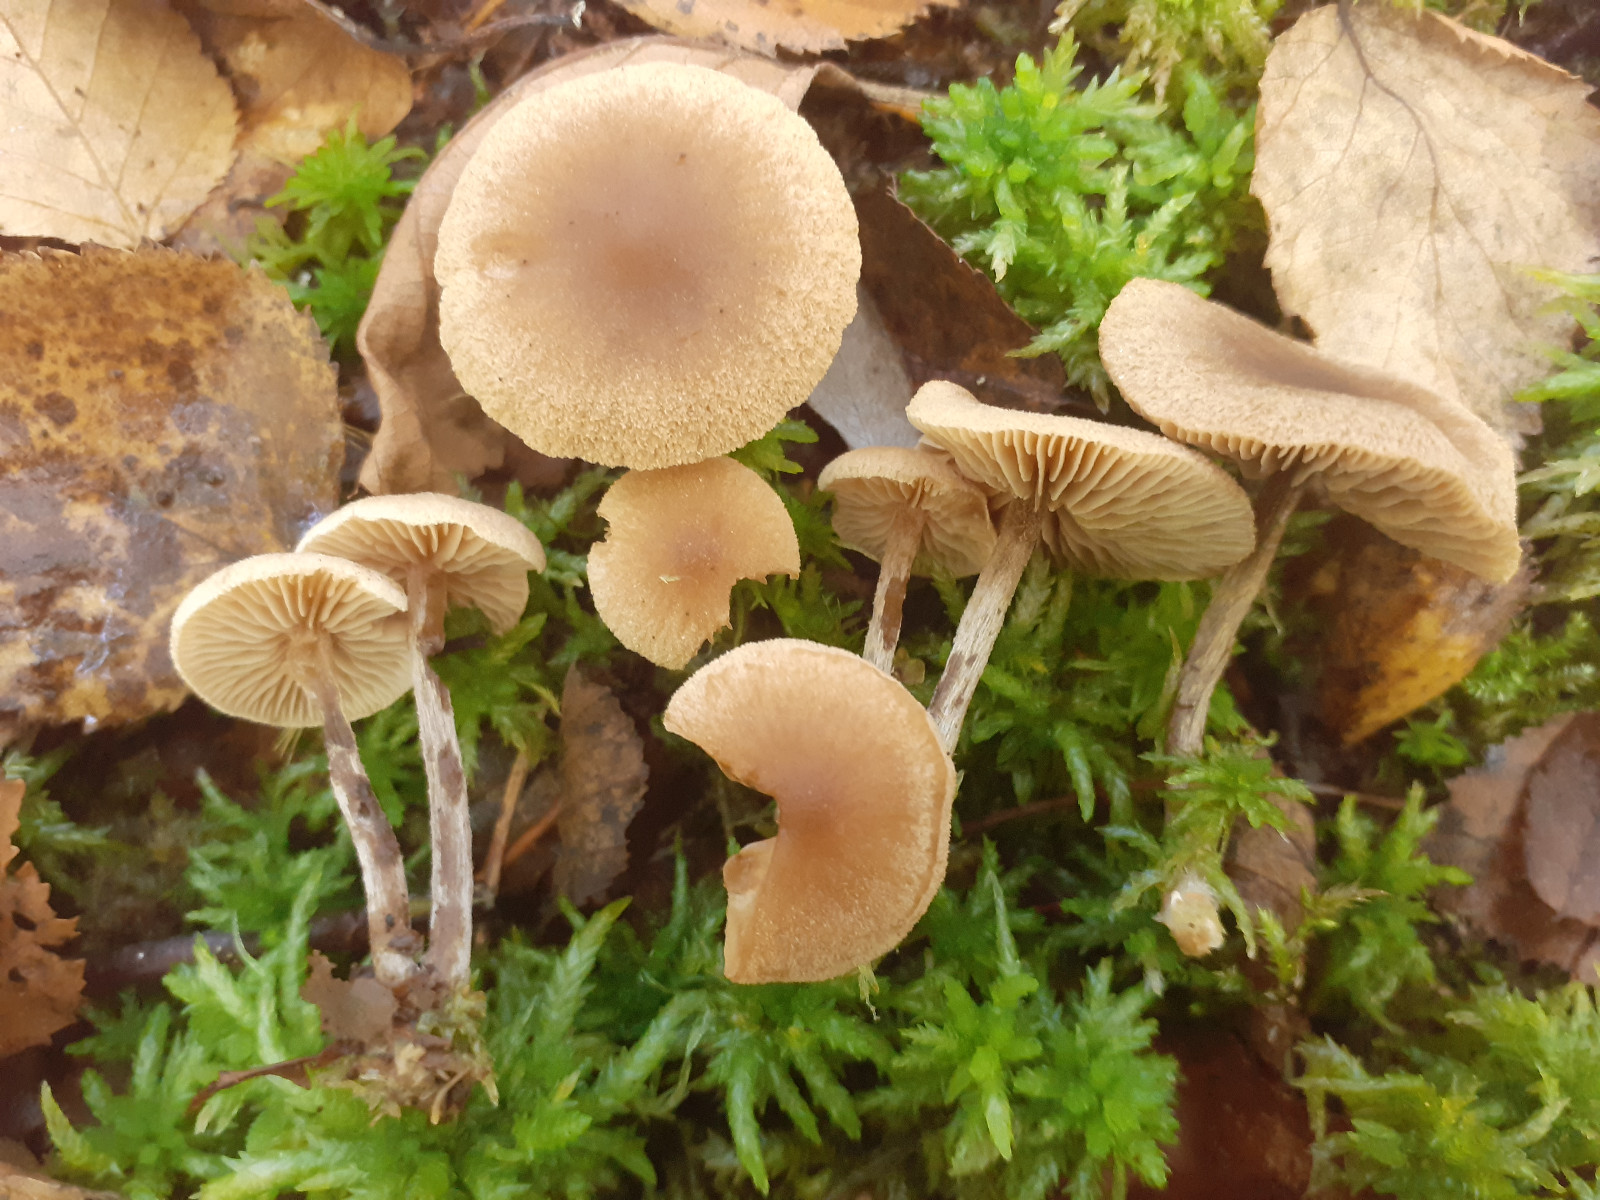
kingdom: Fungi
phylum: Basidiomycota
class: Agaricomycetes
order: Agaricales
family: Hymenogastraceae
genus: Naucoria
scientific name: Naucoria sphagneti
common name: lysrandet knaphat
